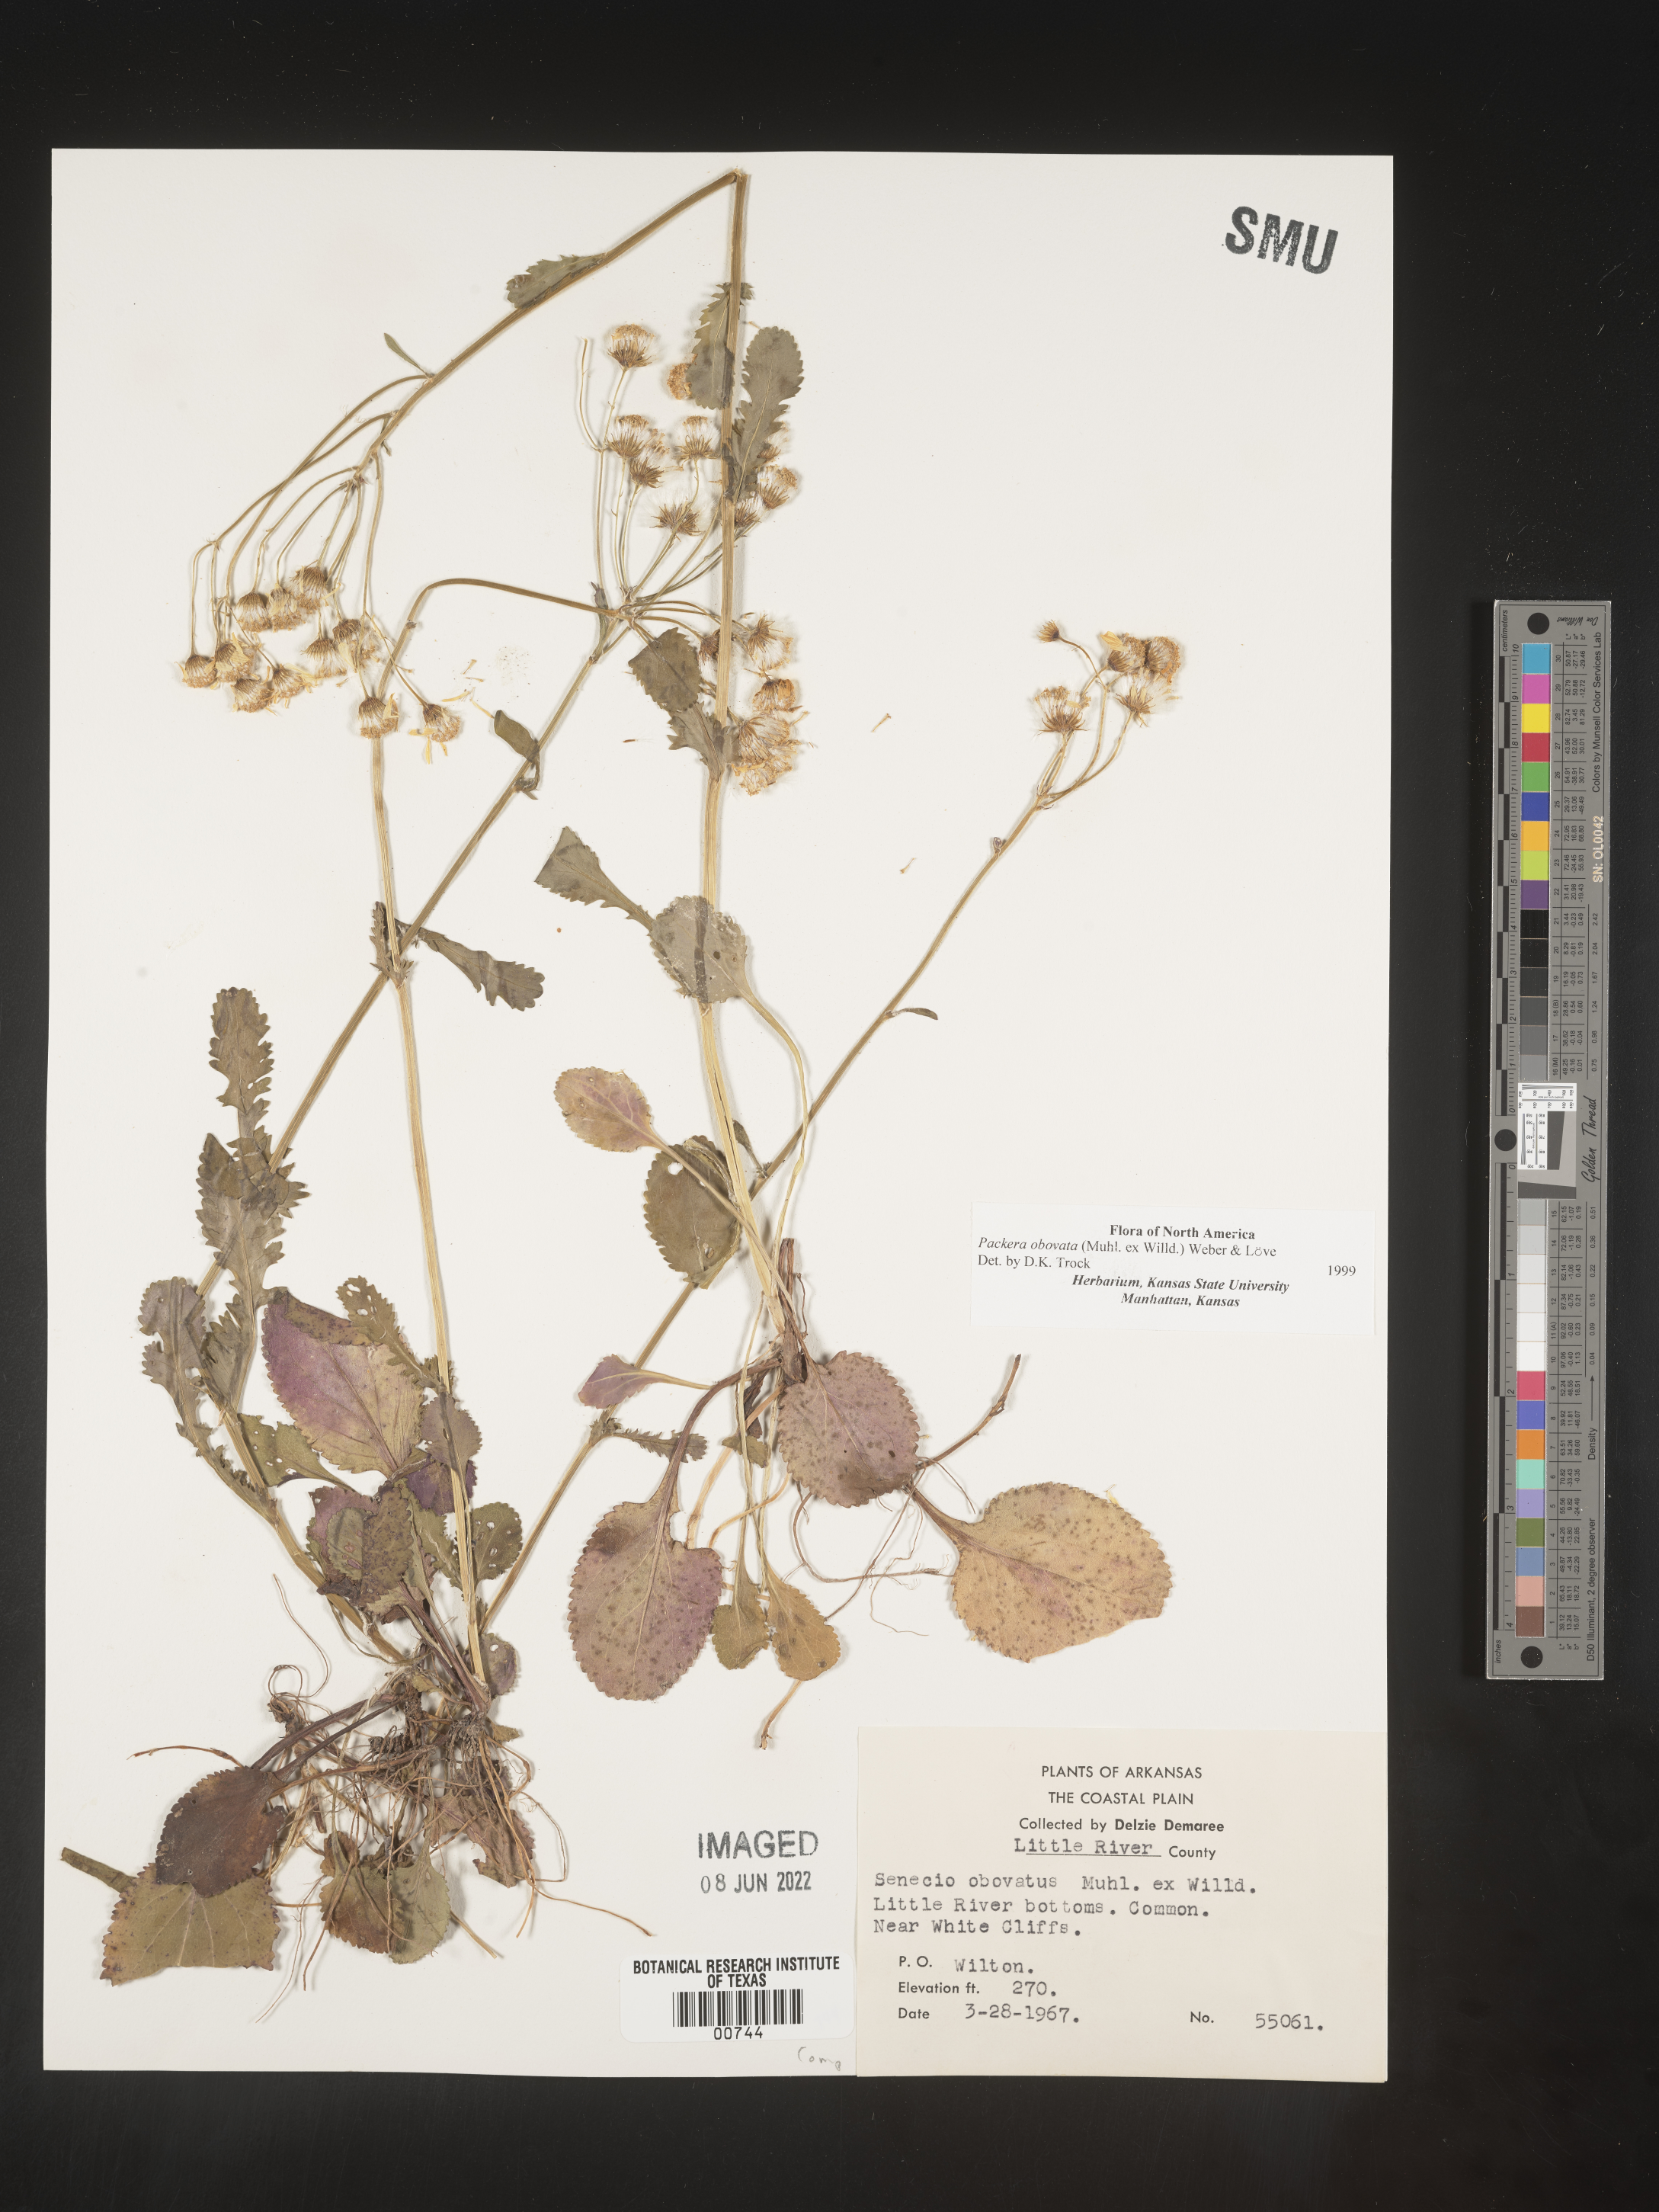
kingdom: Plantae
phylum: Tracheophyta
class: Magnoliopsida
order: Asterales
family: Asteraceae
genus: Packera
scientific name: Packera obovata
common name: Round-leaf ragwort
